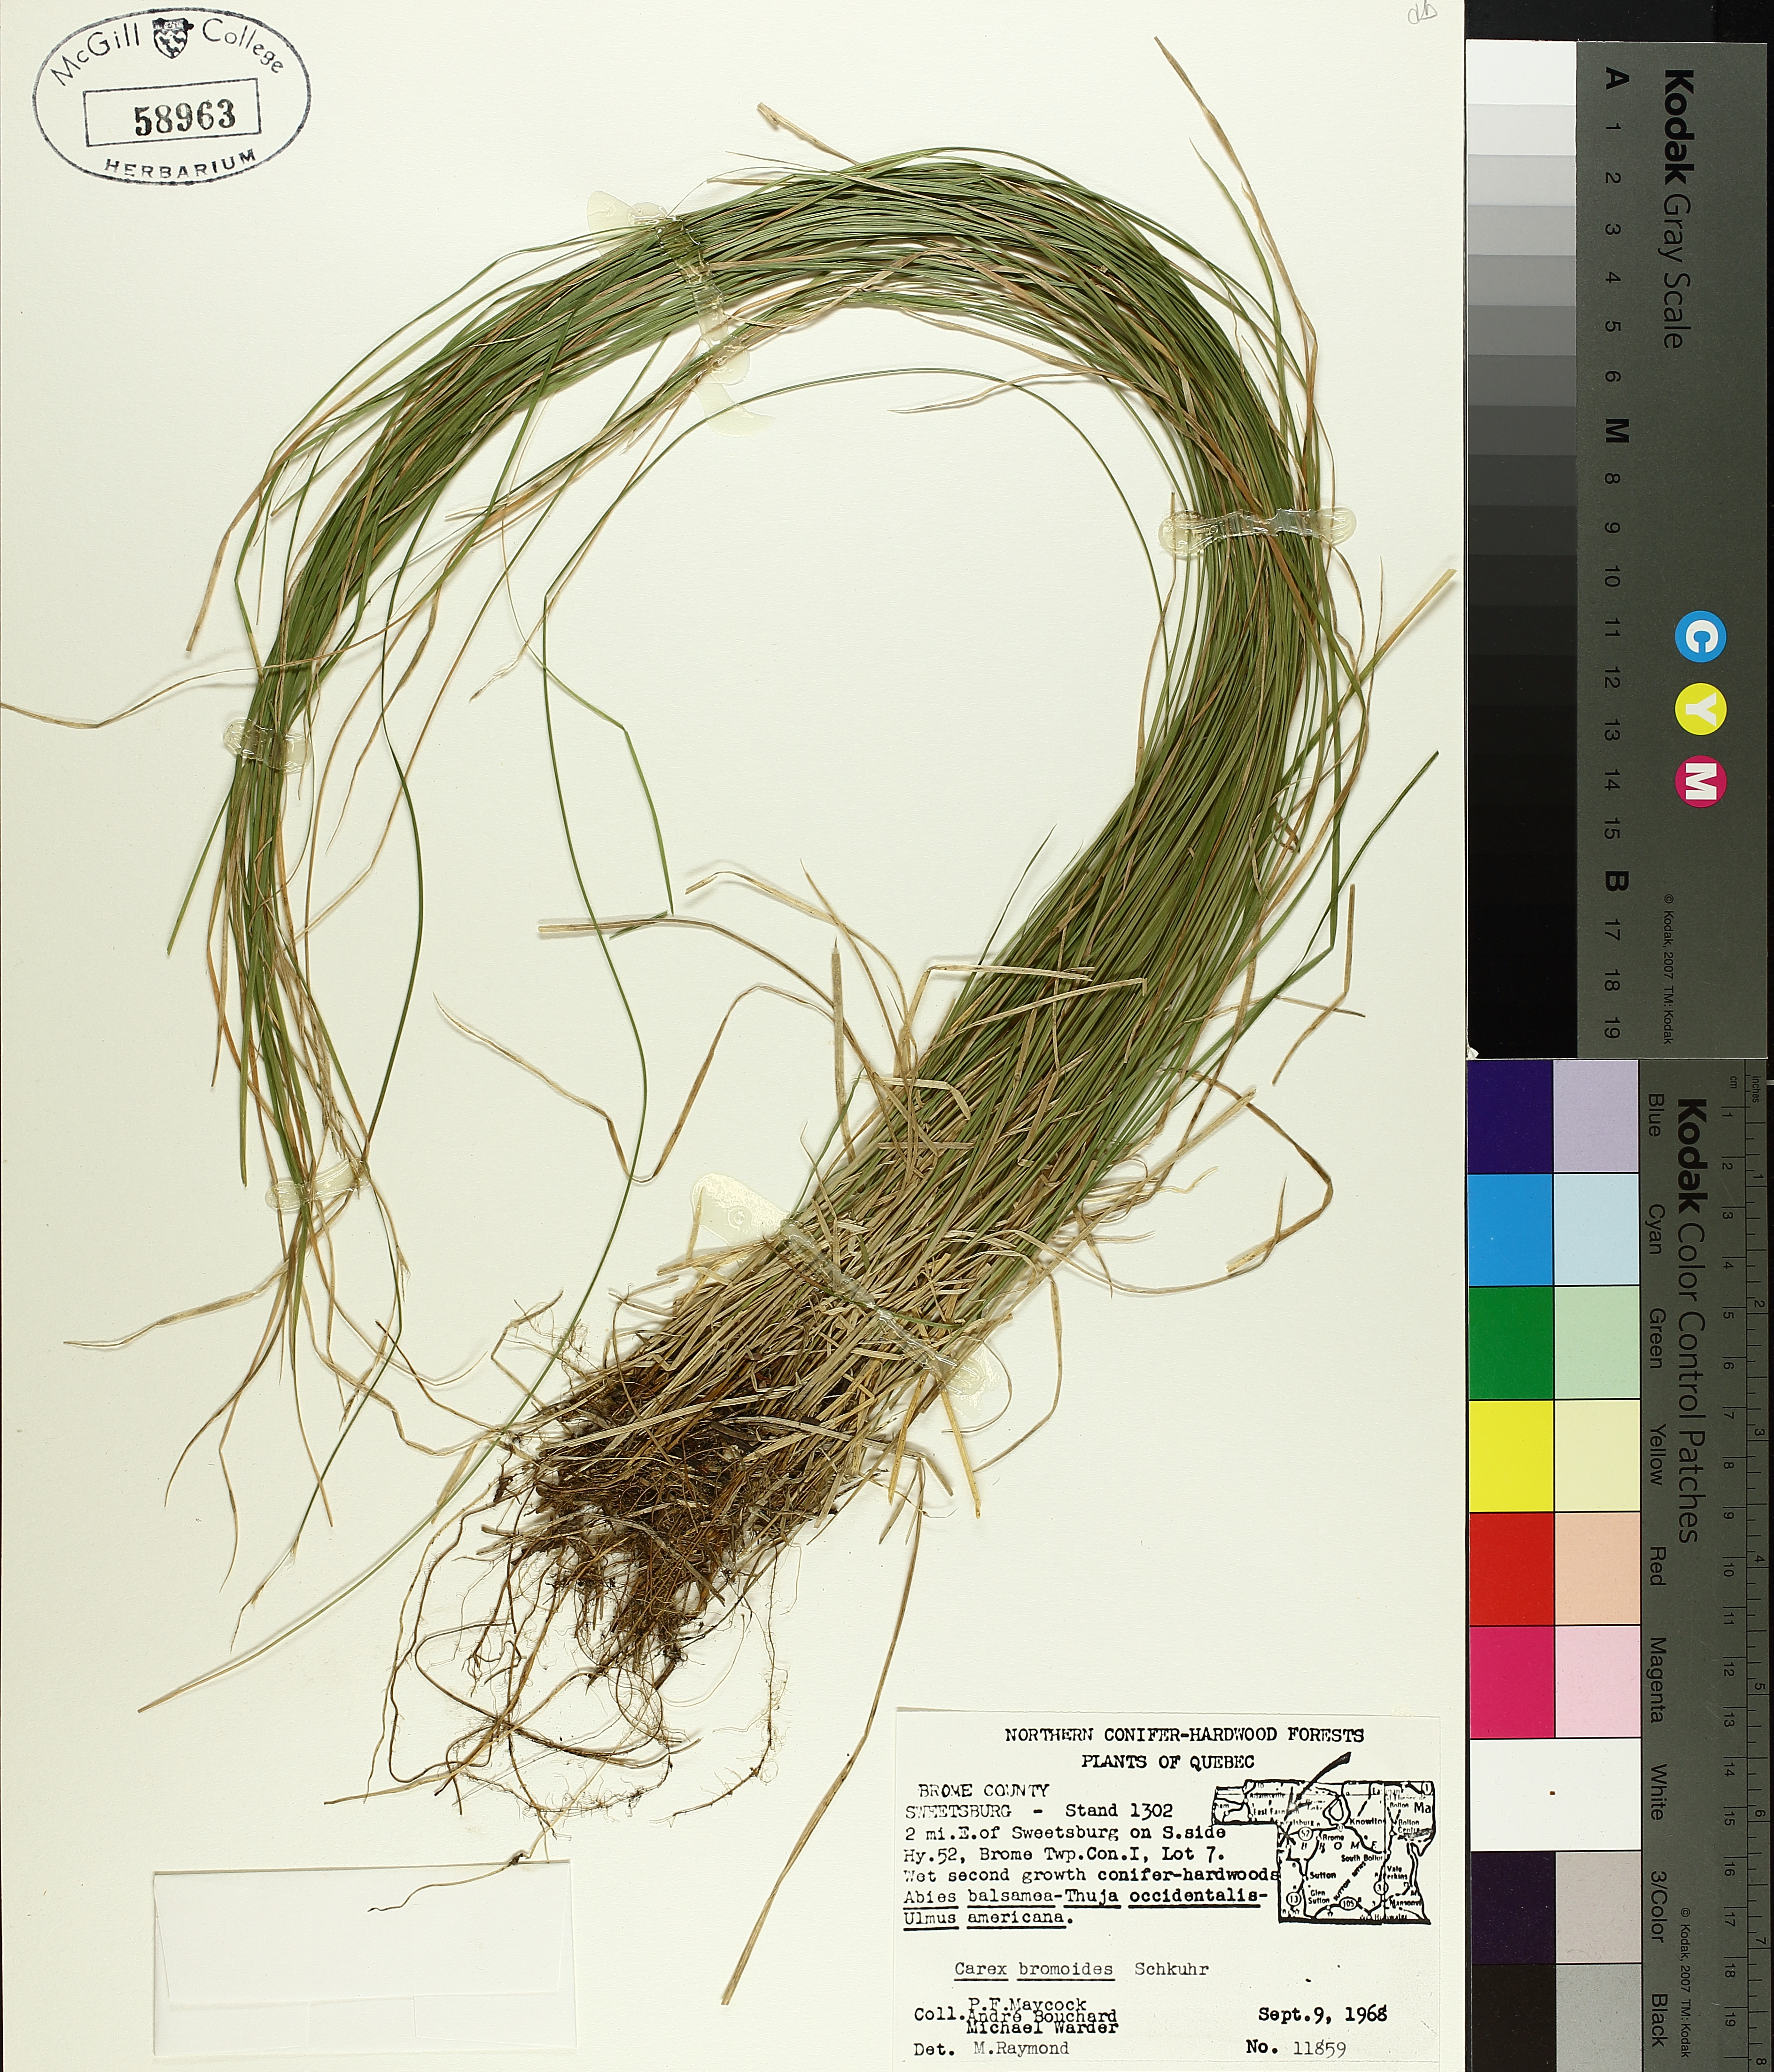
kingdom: Plantae
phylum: Tracheophyta
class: Liliopsida
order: Poales
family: Cyperaceae
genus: Carex
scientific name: Carex bromoides
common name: Brome hummock sedge
